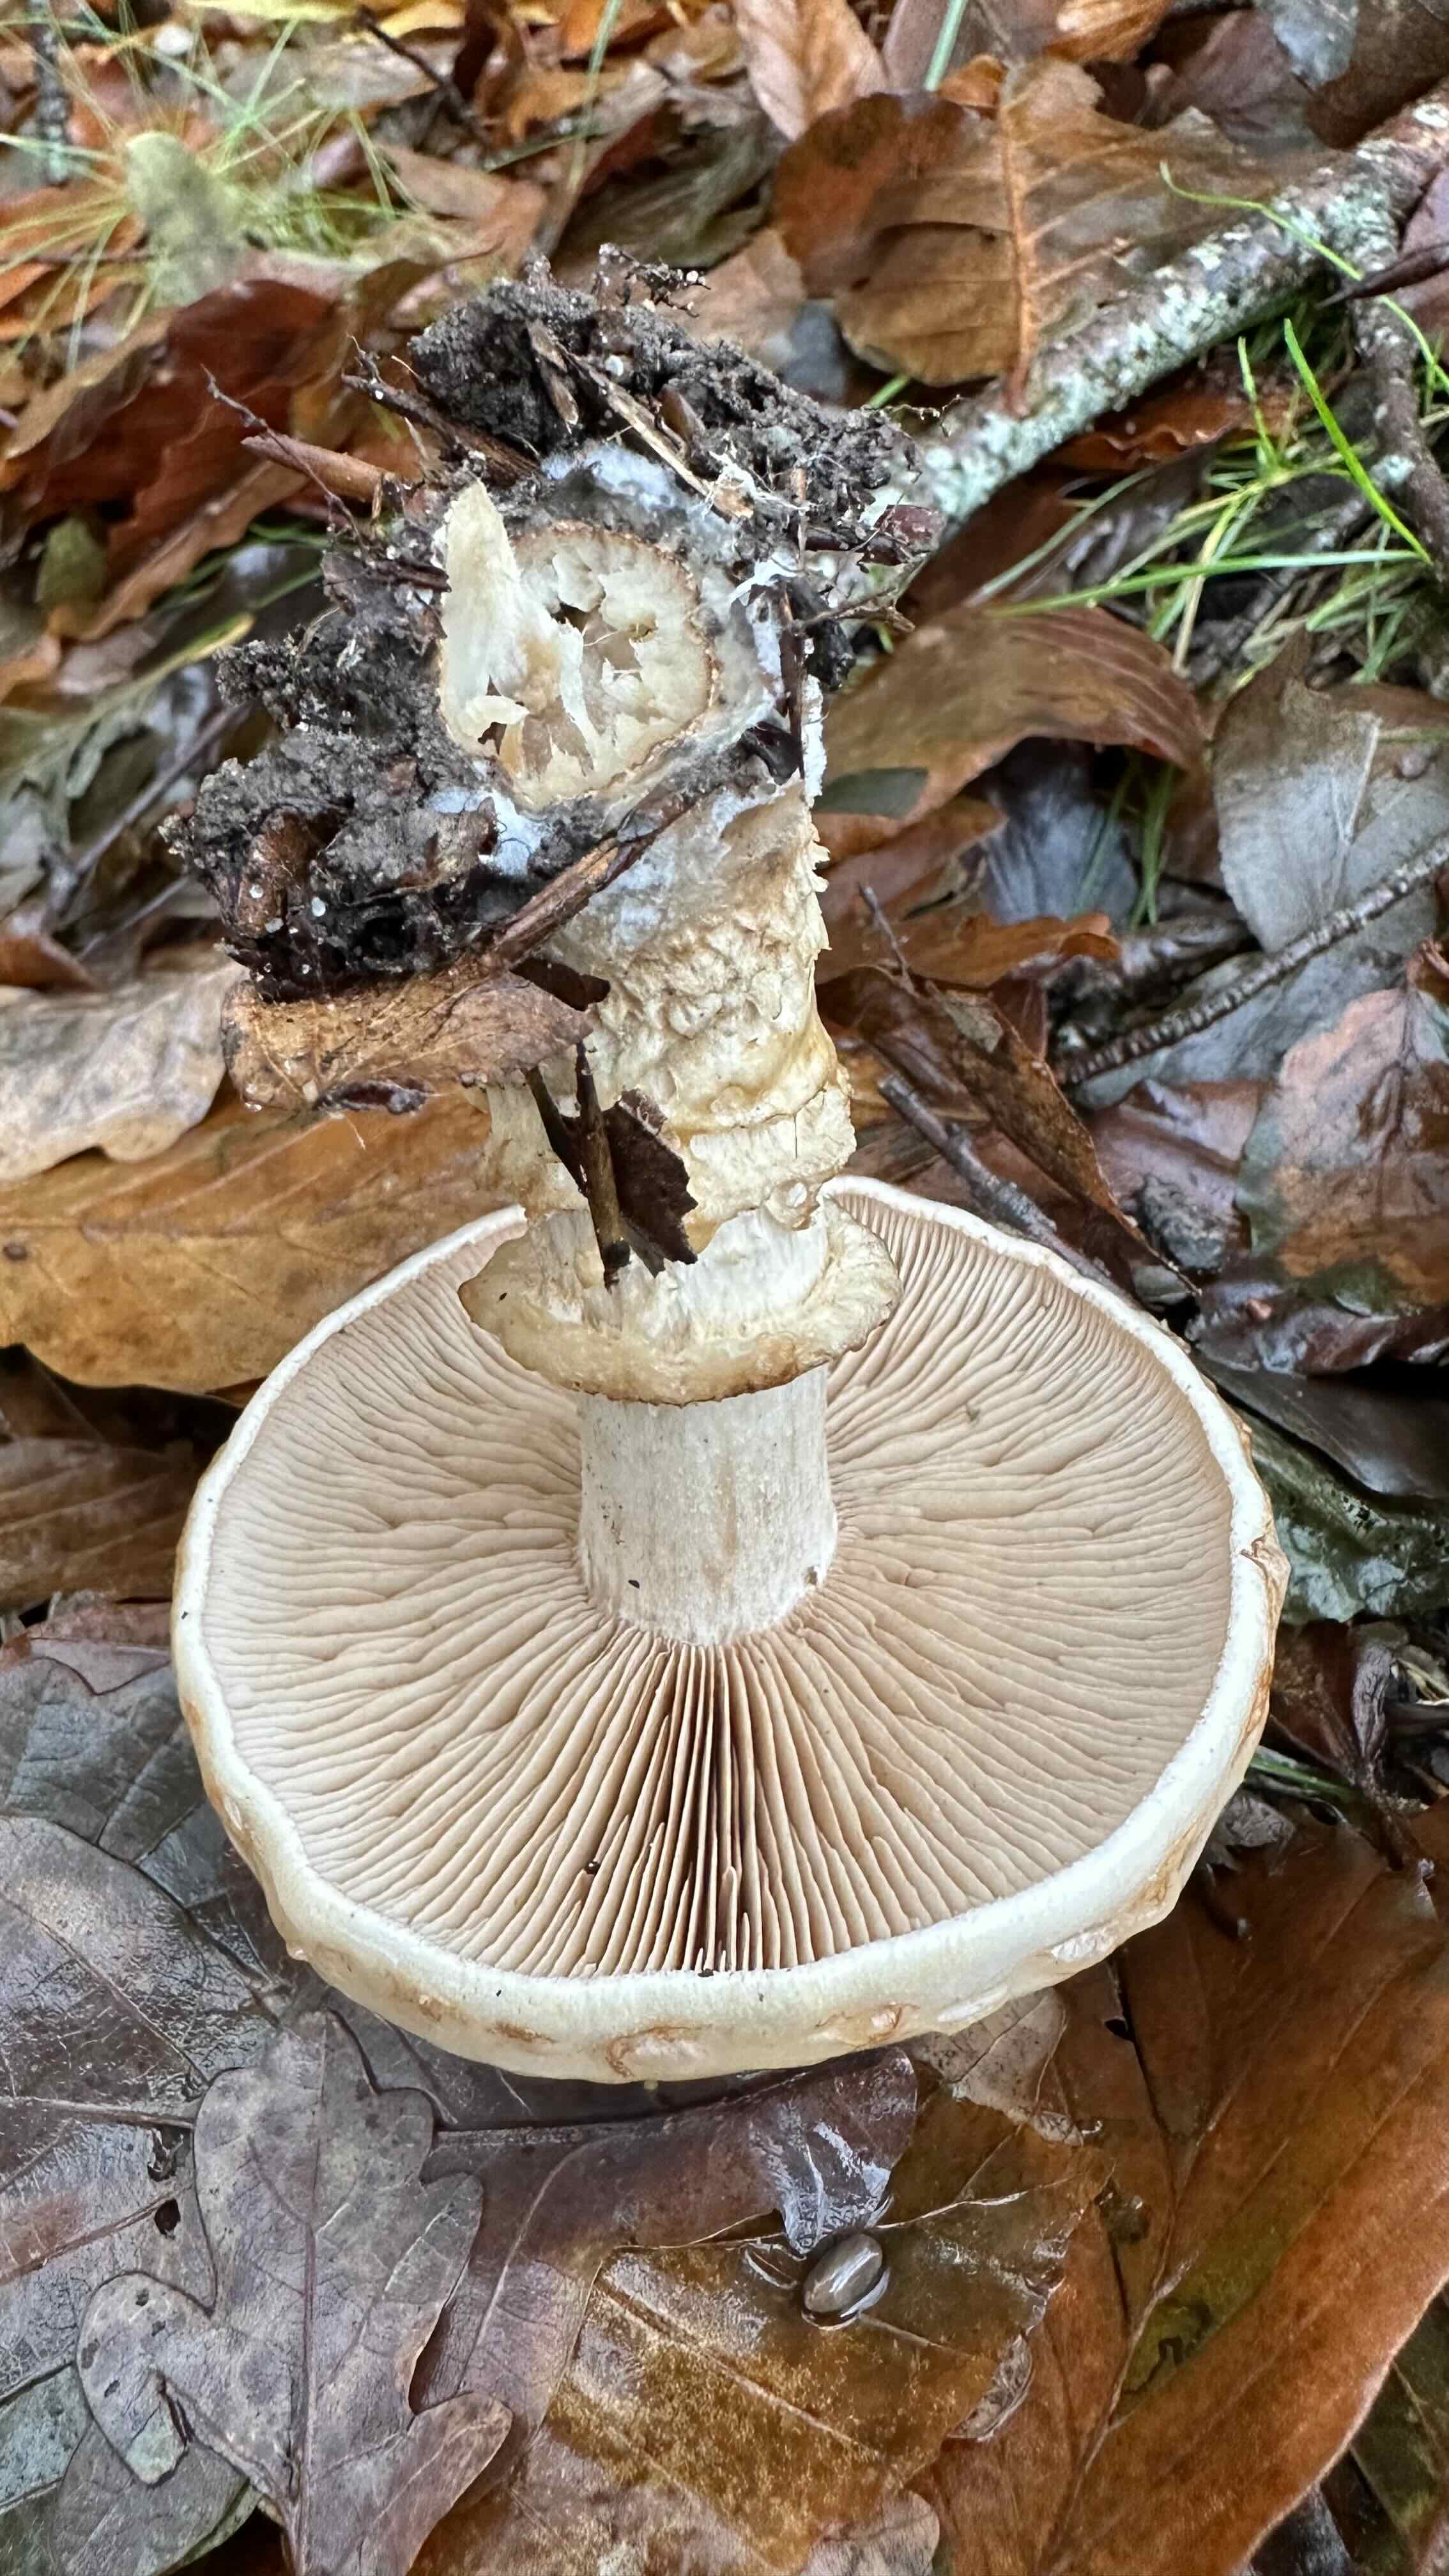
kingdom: Fungi
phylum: Basidiomycota
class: Agaricomycetes
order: Agaricales
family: Hymenogastraceae
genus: Hebeloma
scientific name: Hebeloma radicosum
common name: pælerods-tåreblad
